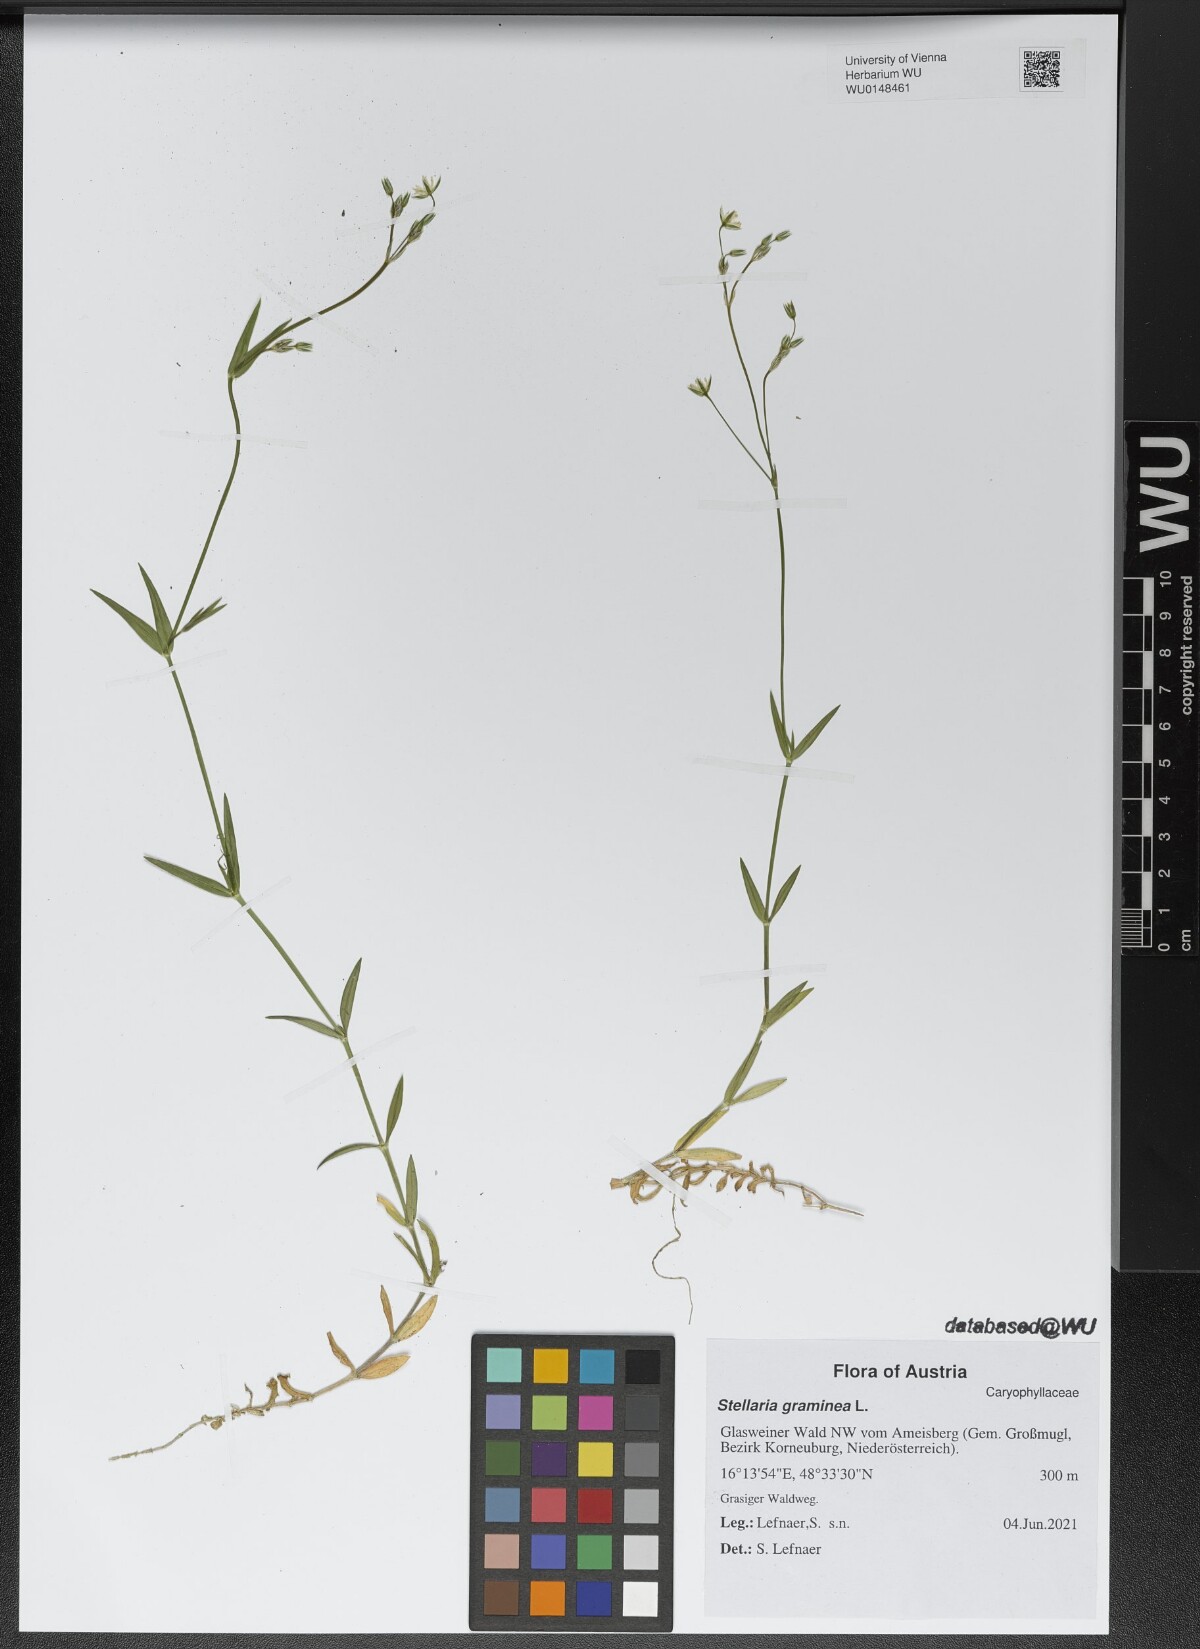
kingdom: Plantae
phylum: Tracheophyta
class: Magnoliopsida
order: Caryophyllales
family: Caryophyllaceae
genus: Stellaria
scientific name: Stellaria graminea
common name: Grass-like starwort
